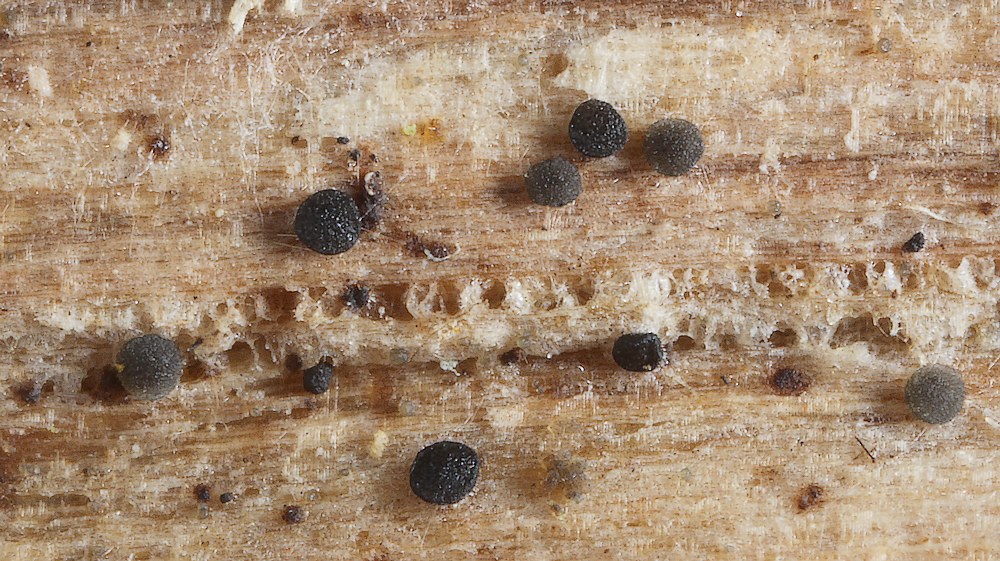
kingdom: Fungi
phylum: Ascomycota
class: Leotiomycetes
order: Helotiales
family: Helotiaceae
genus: Durella
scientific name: Durella macrospora
